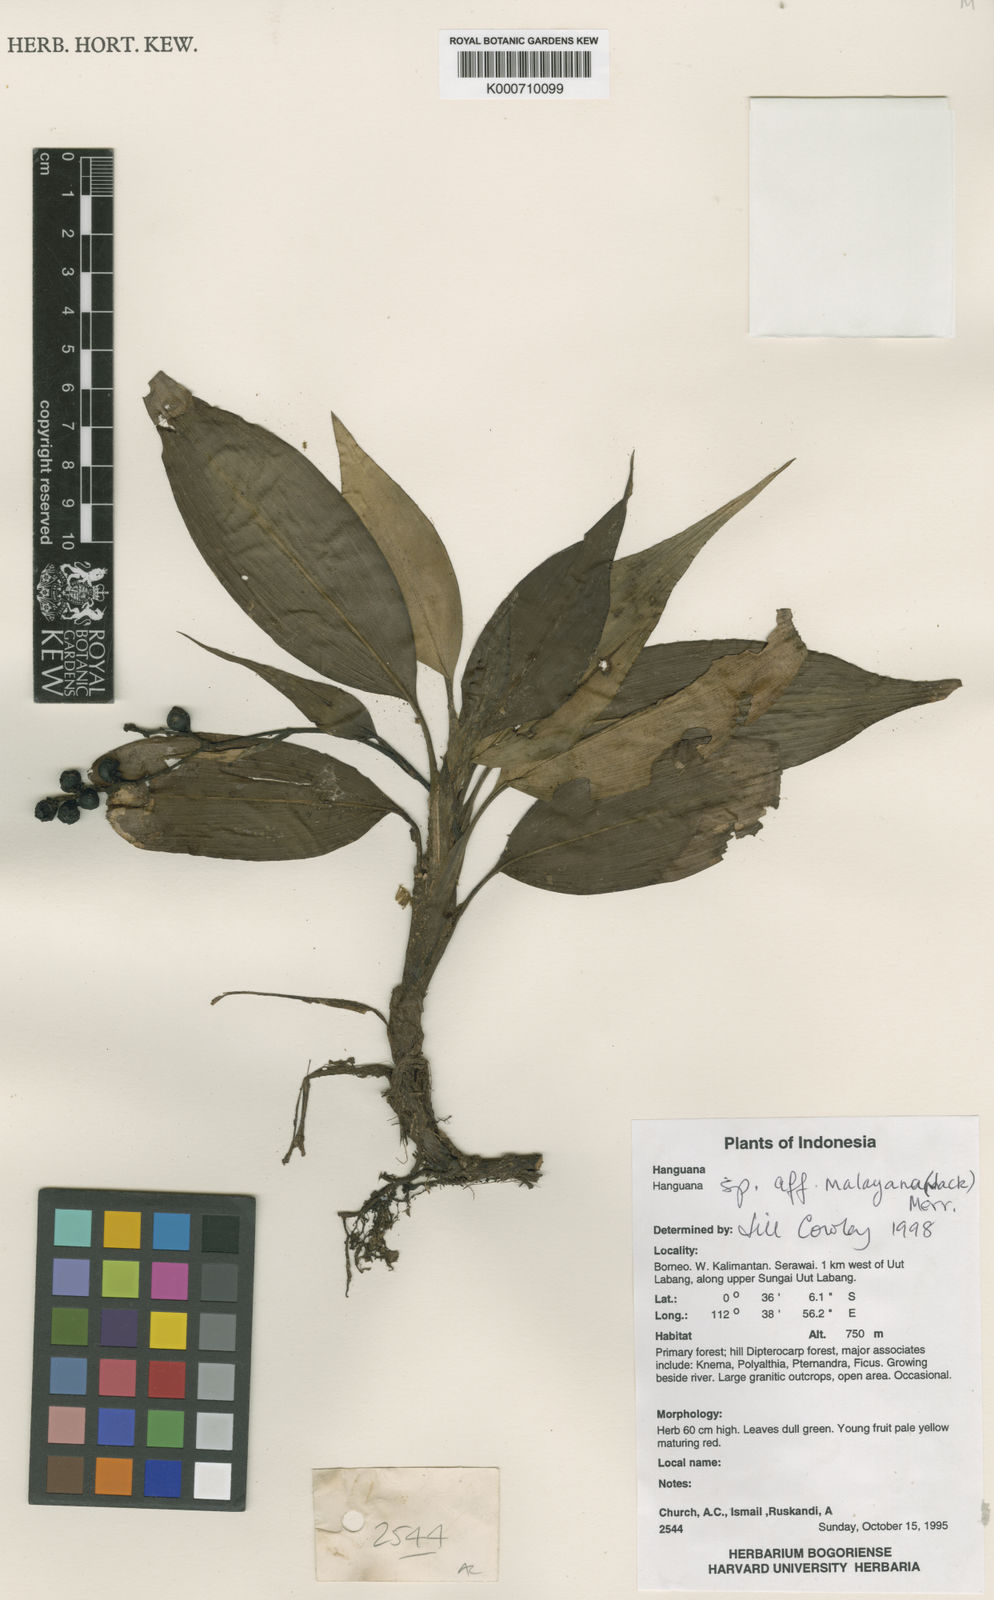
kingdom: Plantae
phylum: Tracheophyta
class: Liliopsida
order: Commelinales
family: Hanguanaceae
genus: Hanguana
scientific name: Hanguana malayana
